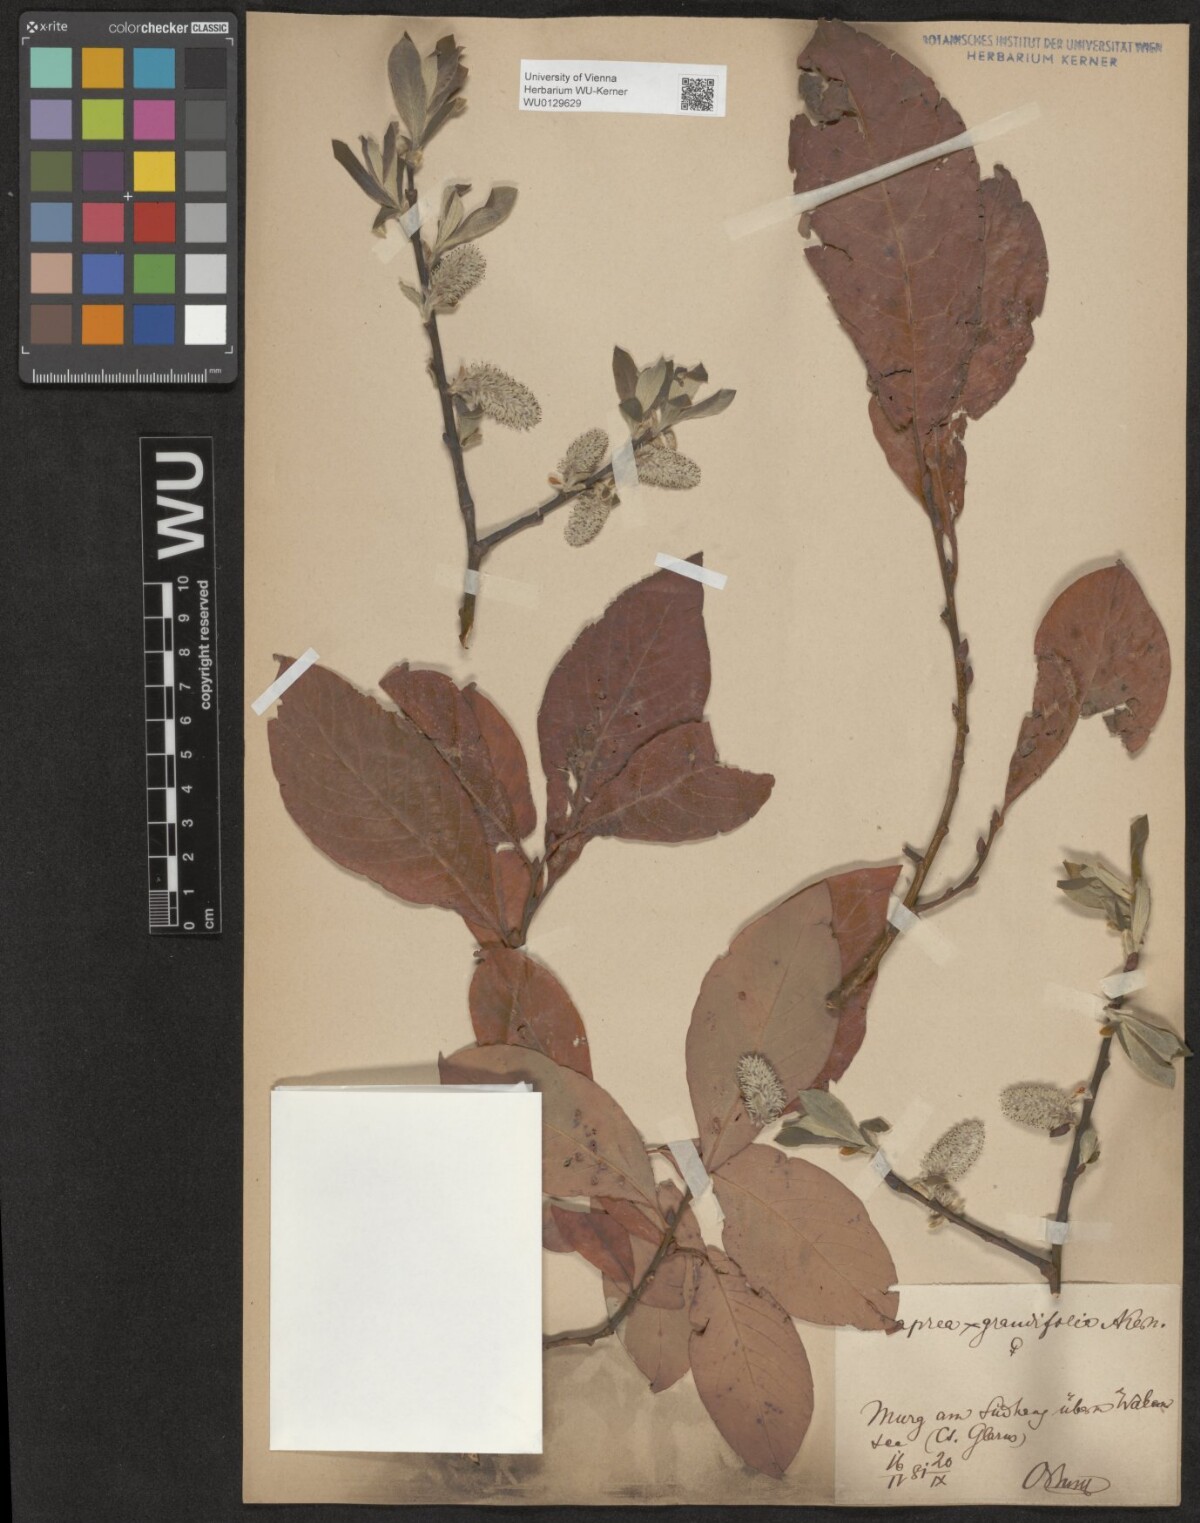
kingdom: Plantae
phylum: Tracheophyta
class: Magnoliopsida
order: Malpighiales
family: Salicaceae
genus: Salix
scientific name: Salix dendroides
